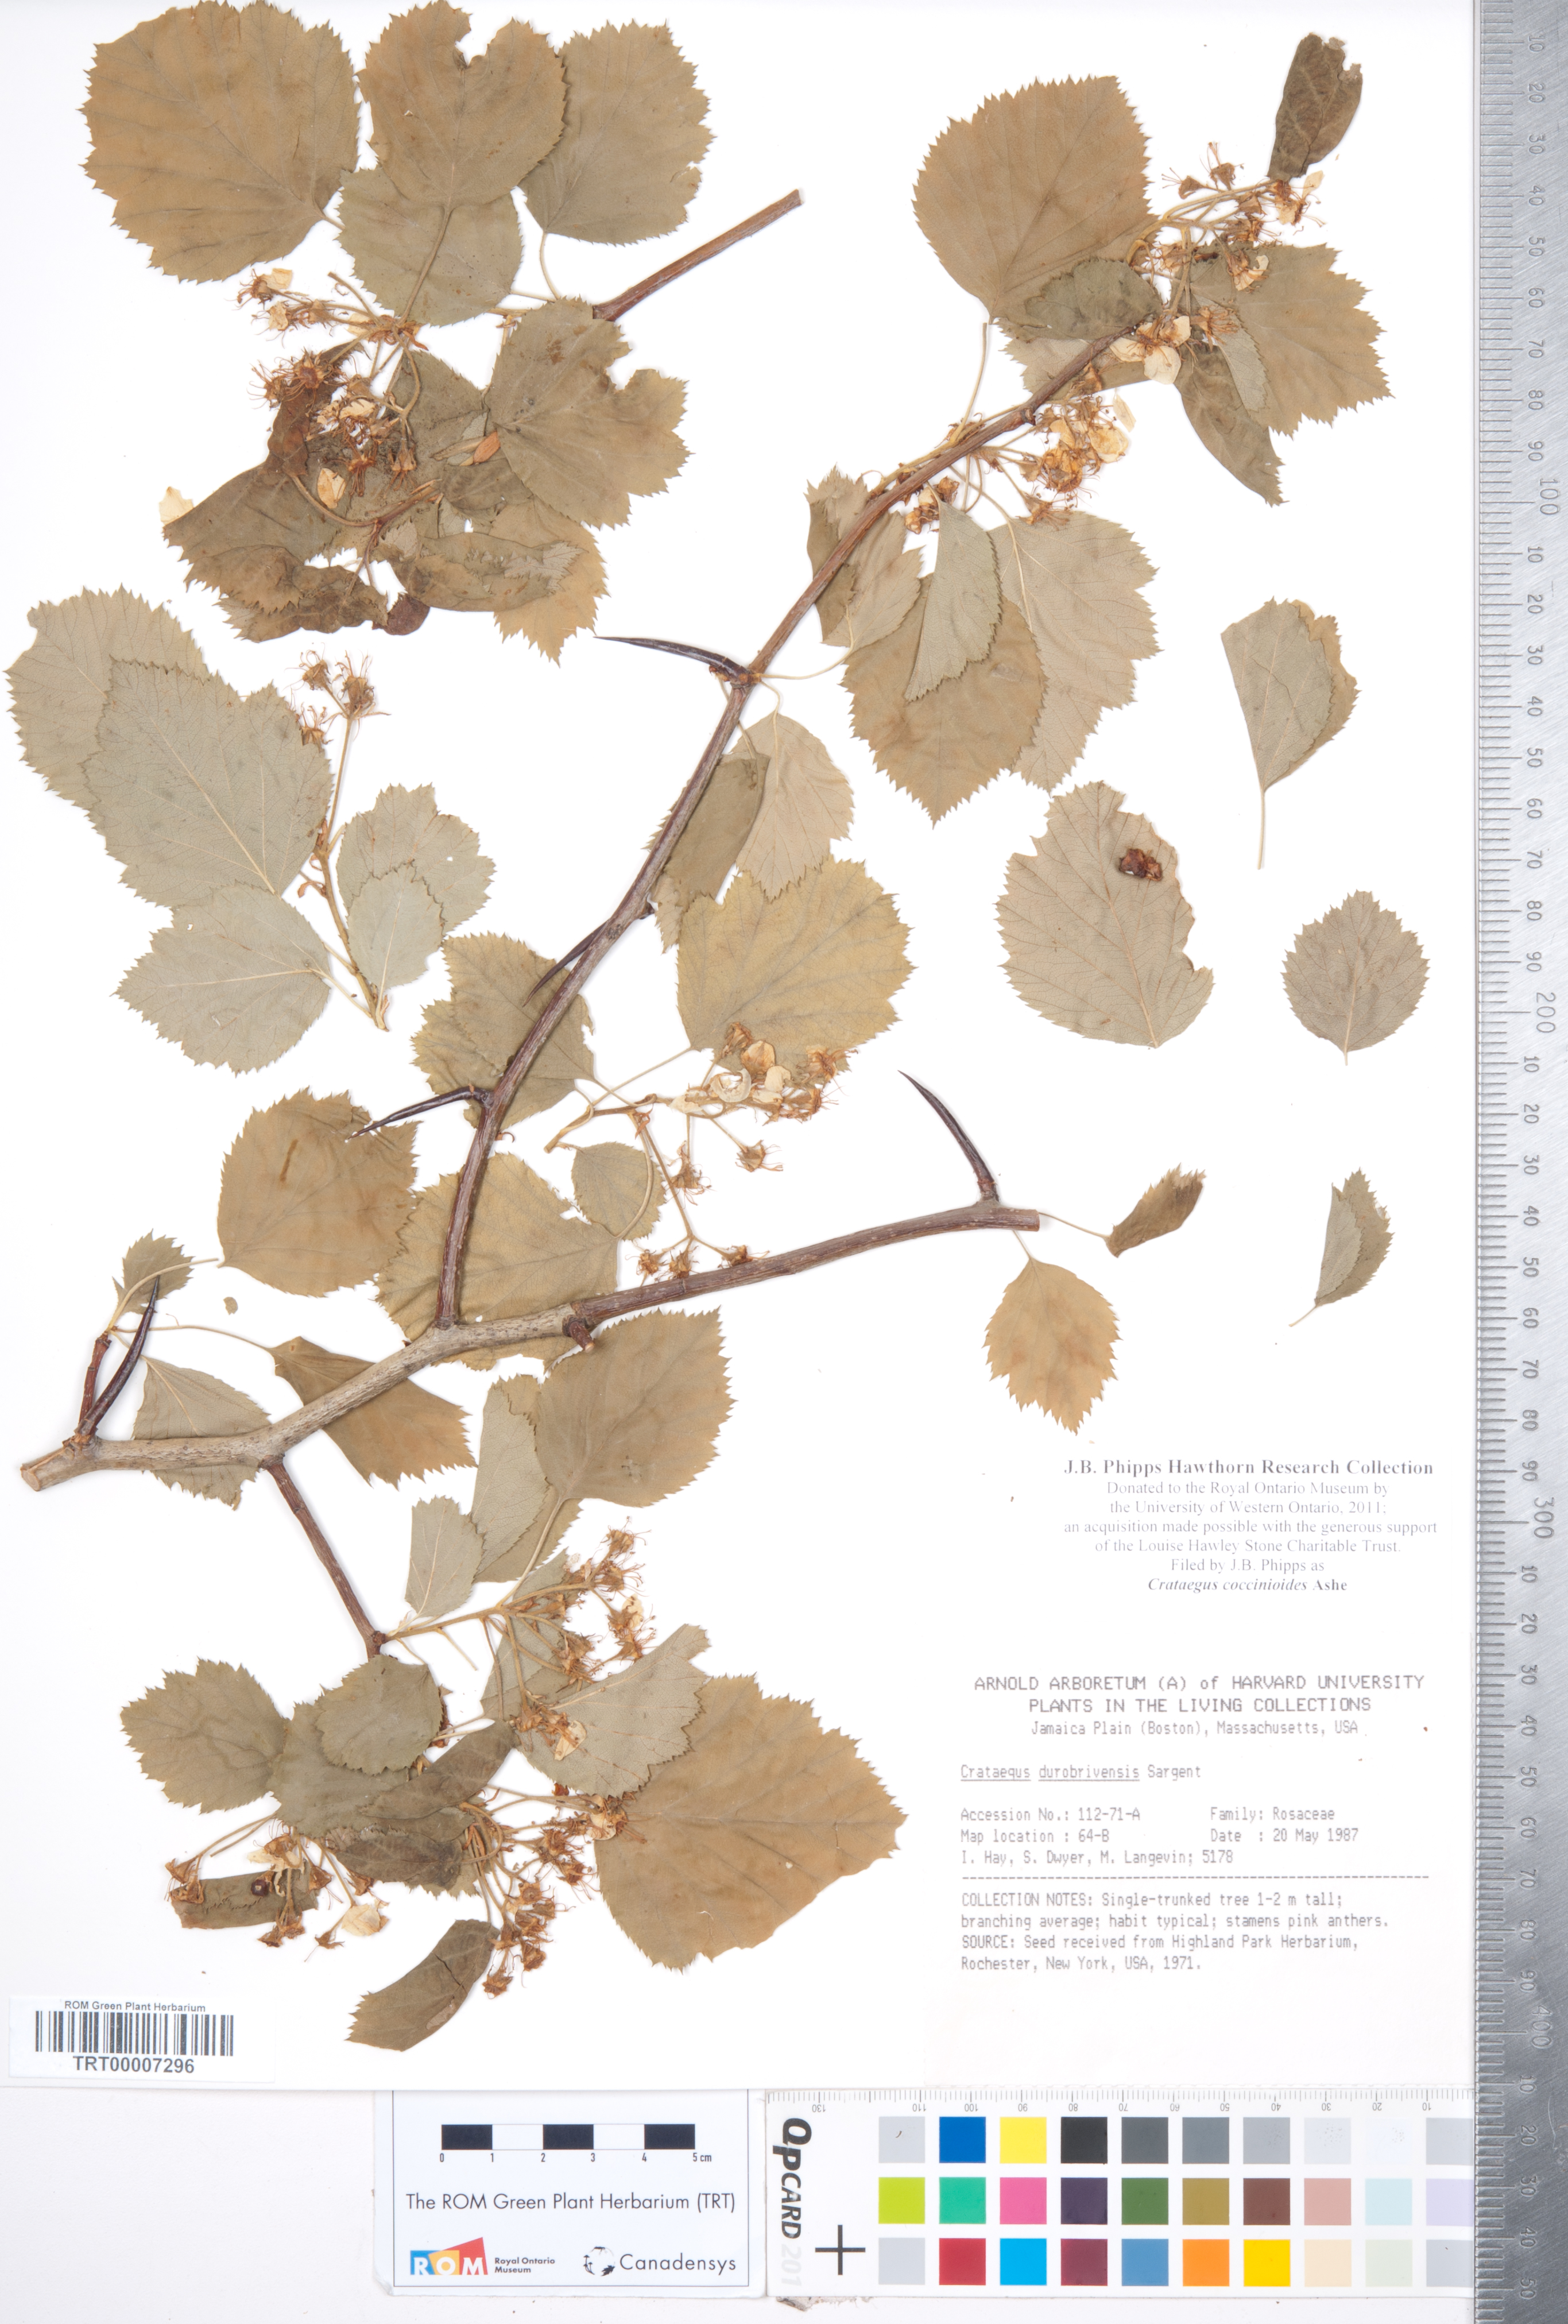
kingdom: Plantae
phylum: Tracheophyta
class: Magnoliopsida
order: Rosales
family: Rosaceae
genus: Crataegus
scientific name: Crataegus coccinioides
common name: Large-flowered cockspurthorn
